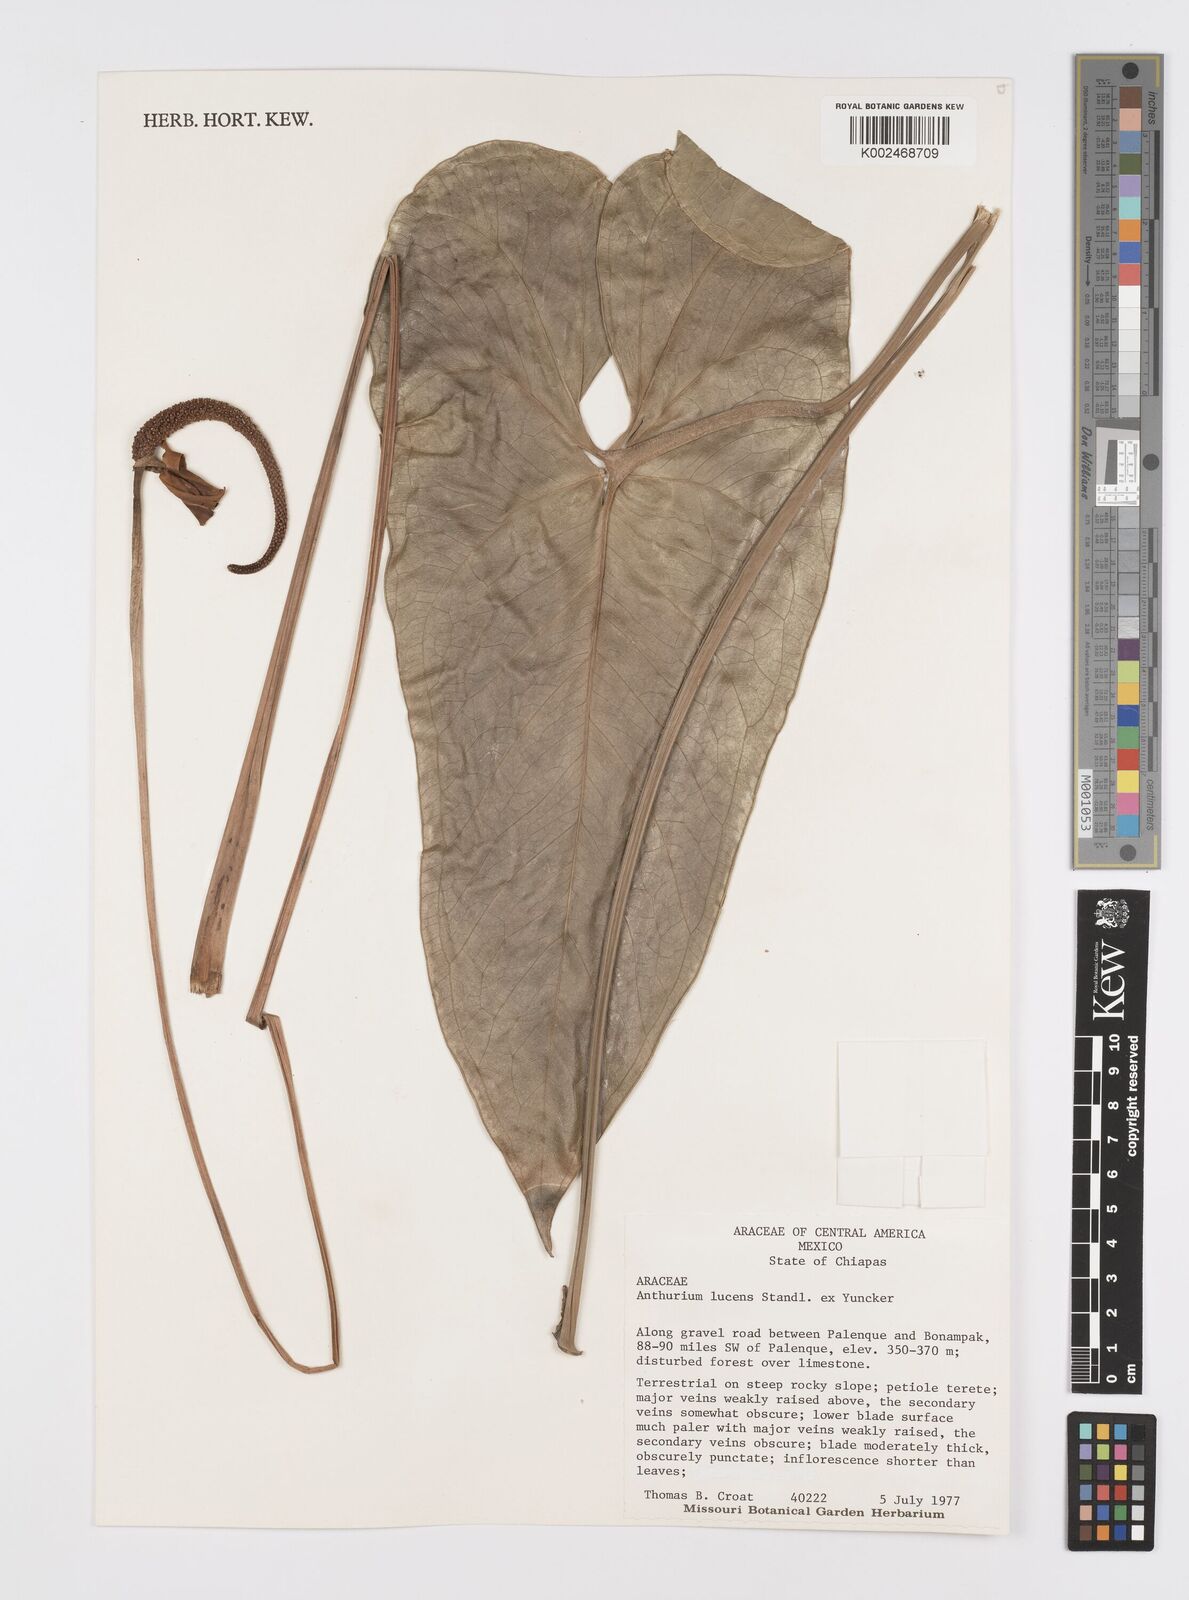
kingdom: Plantae
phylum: Tracheophyta
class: Liliopsida
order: Alismatales
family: Araceae
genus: Anthurium
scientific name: Anthurium lucens
